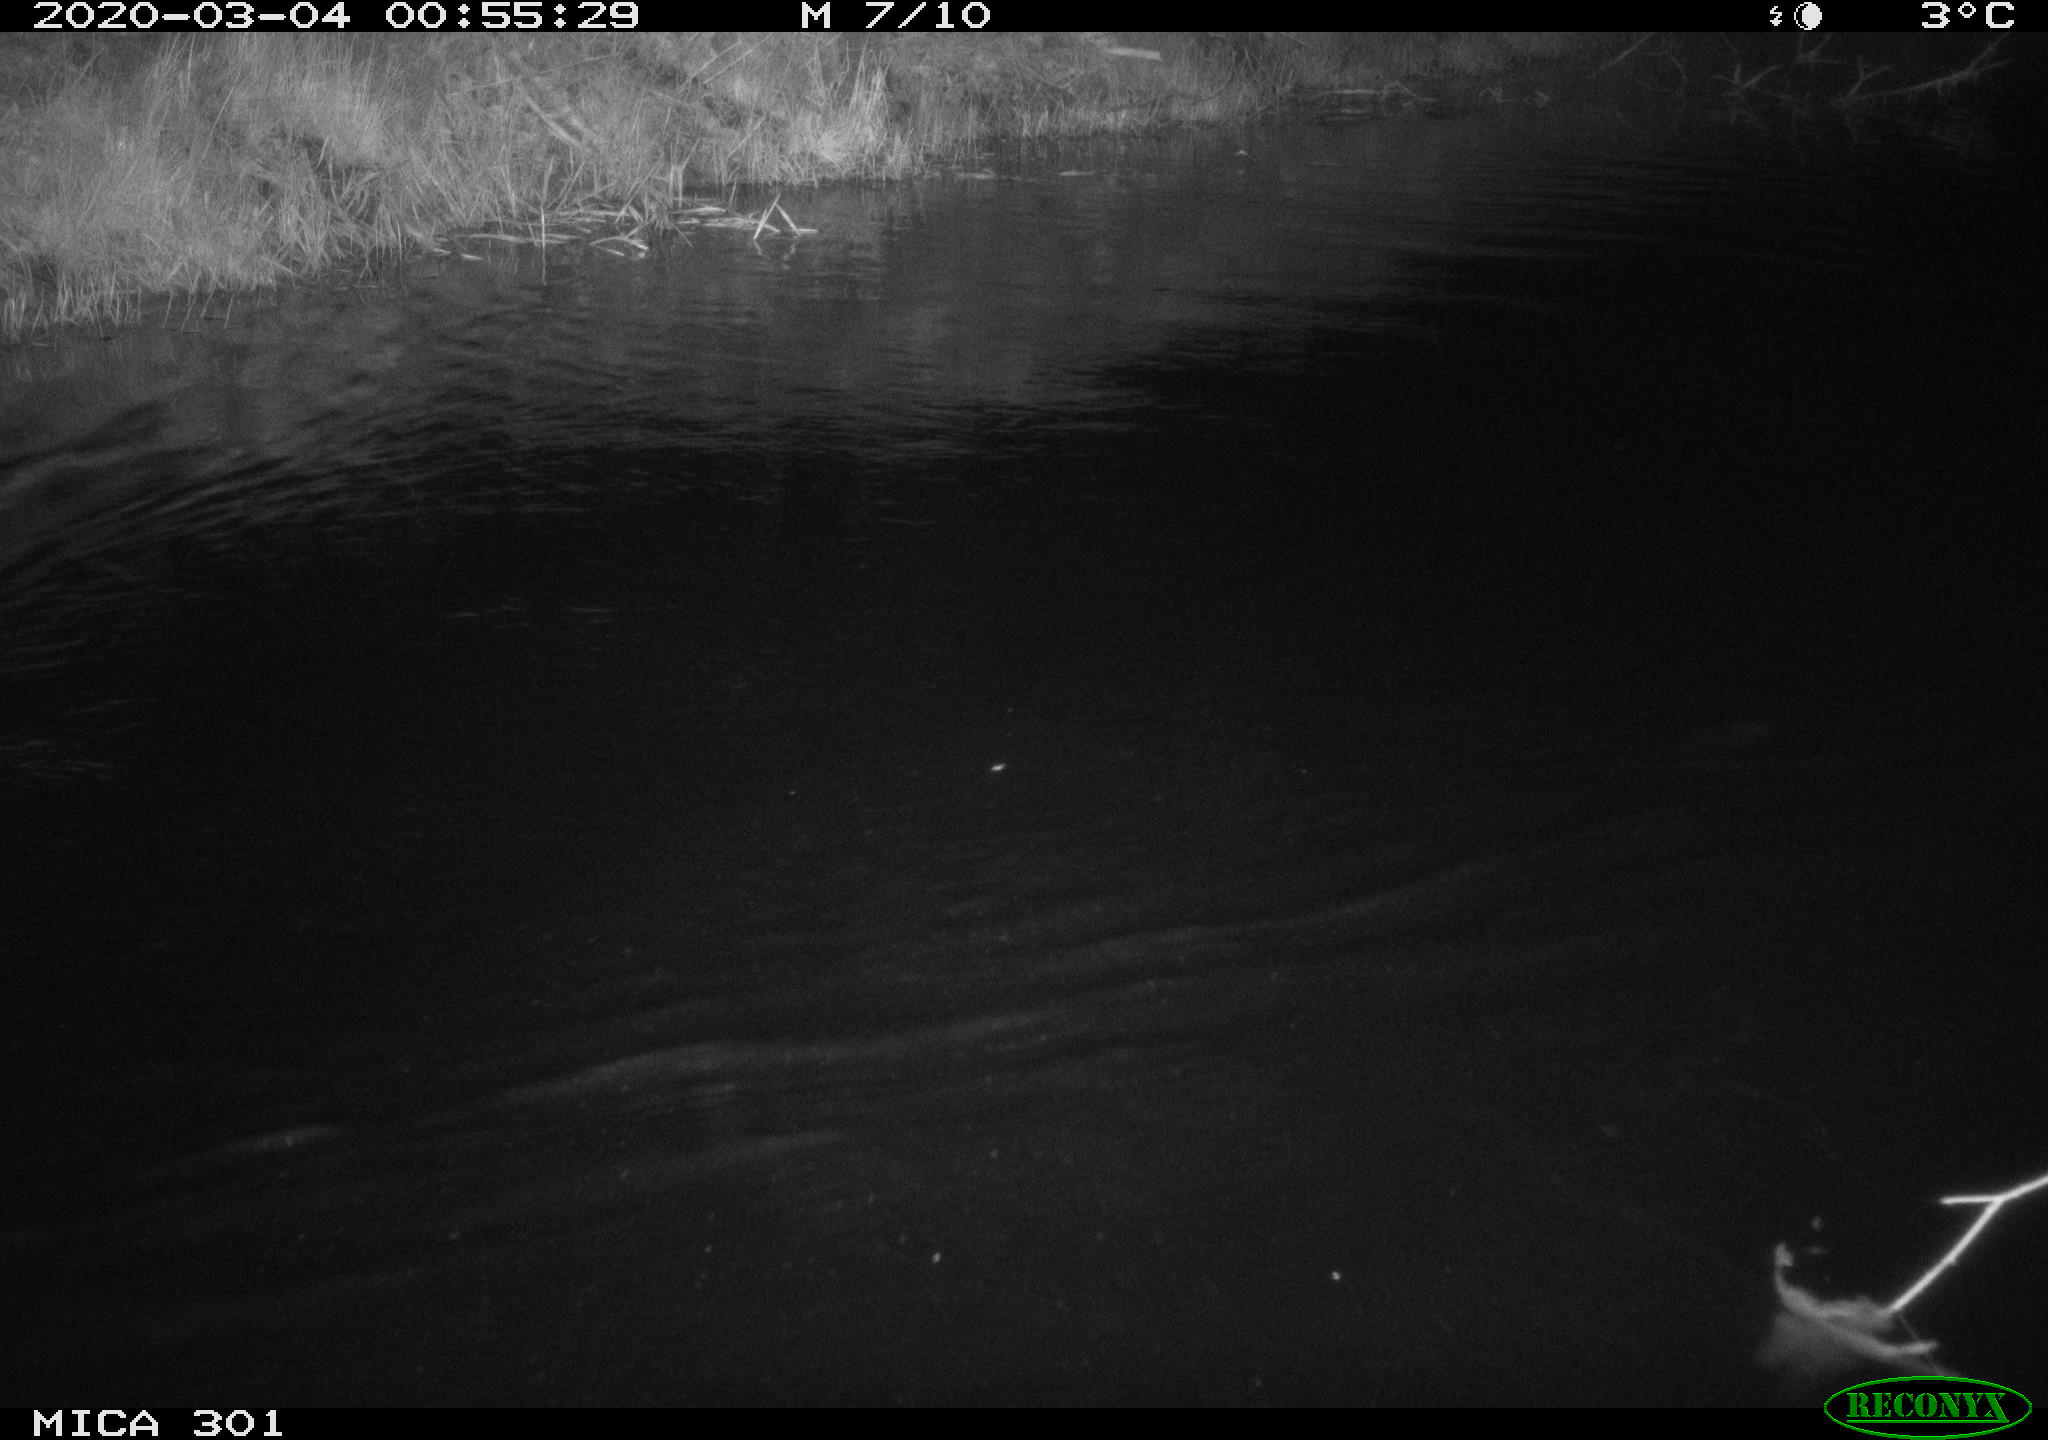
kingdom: Animalia
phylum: Chordata
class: Mammalia
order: Rodentia
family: Castoridae
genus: Castor
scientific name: Castor fiber
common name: Eurasian beaver
